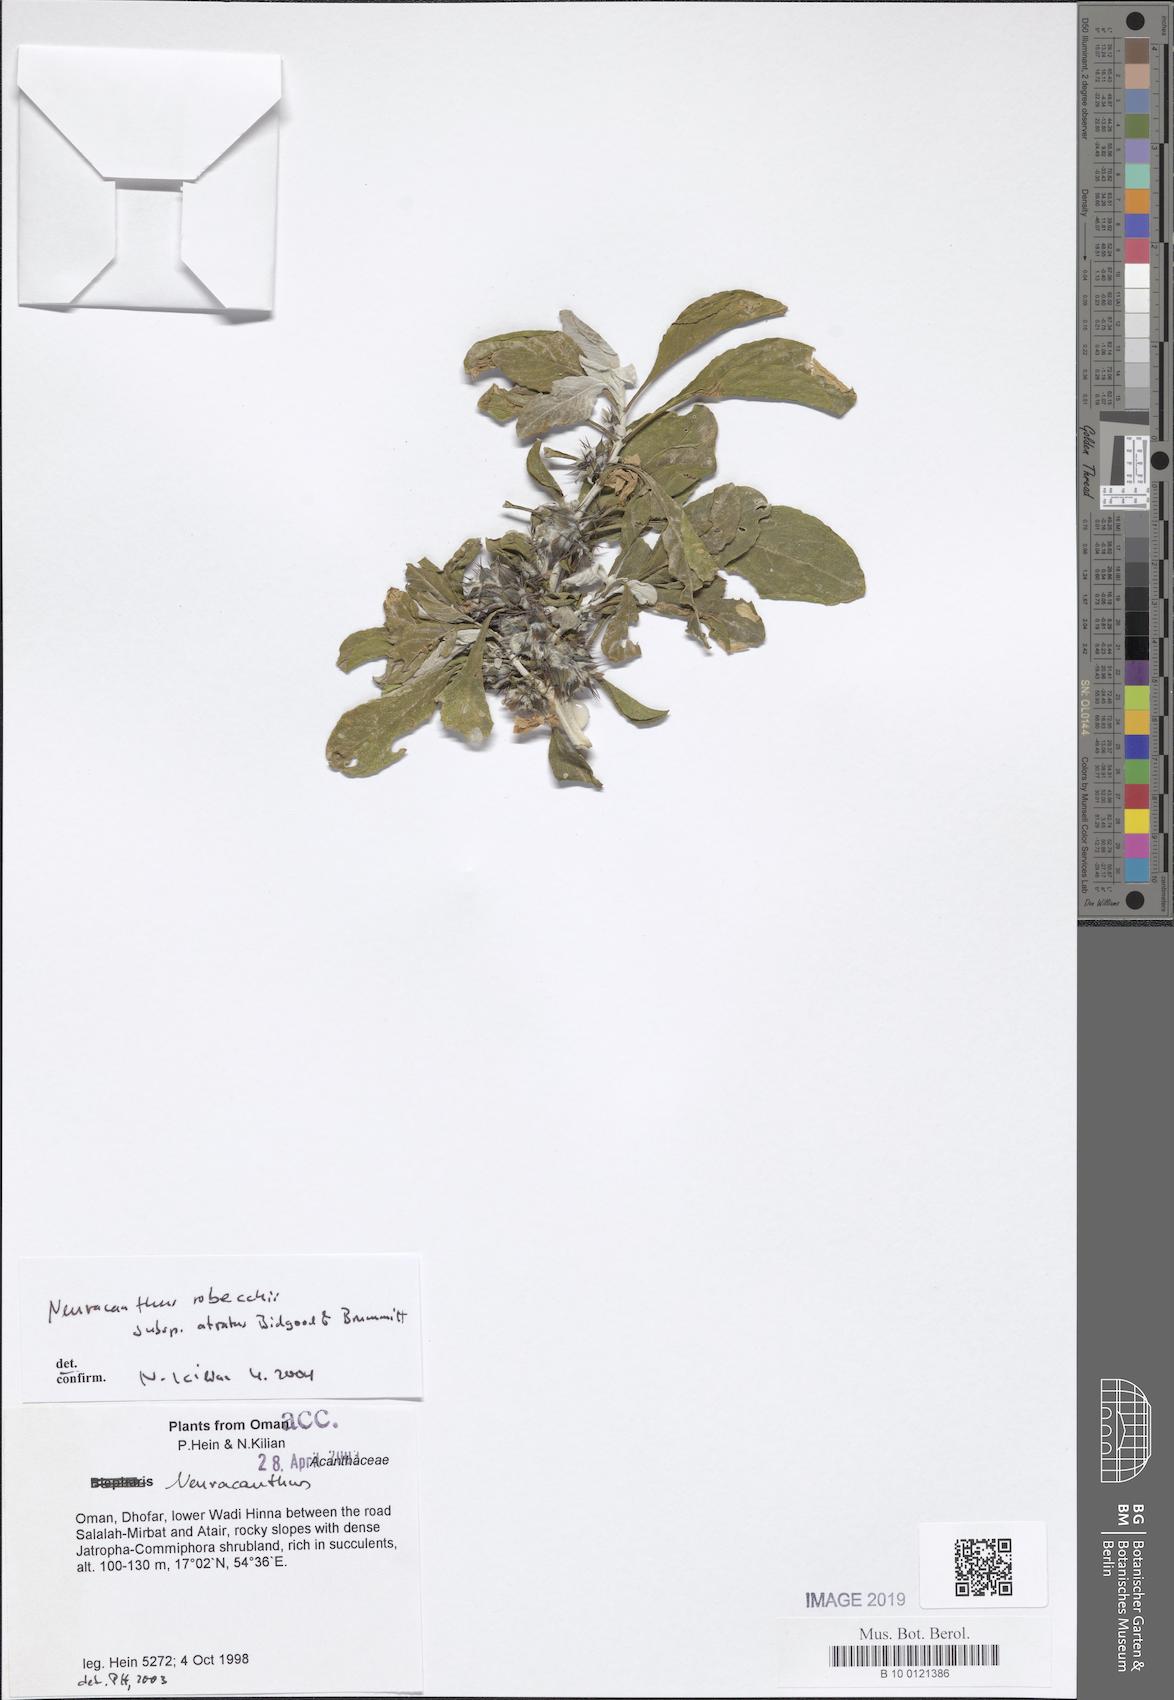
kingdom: Plantae
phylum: Tracheophyta
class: Magnoliopsida
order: Lamiales
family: Acanthaceae
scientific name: Acanthaceae
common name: Acanthaceae
